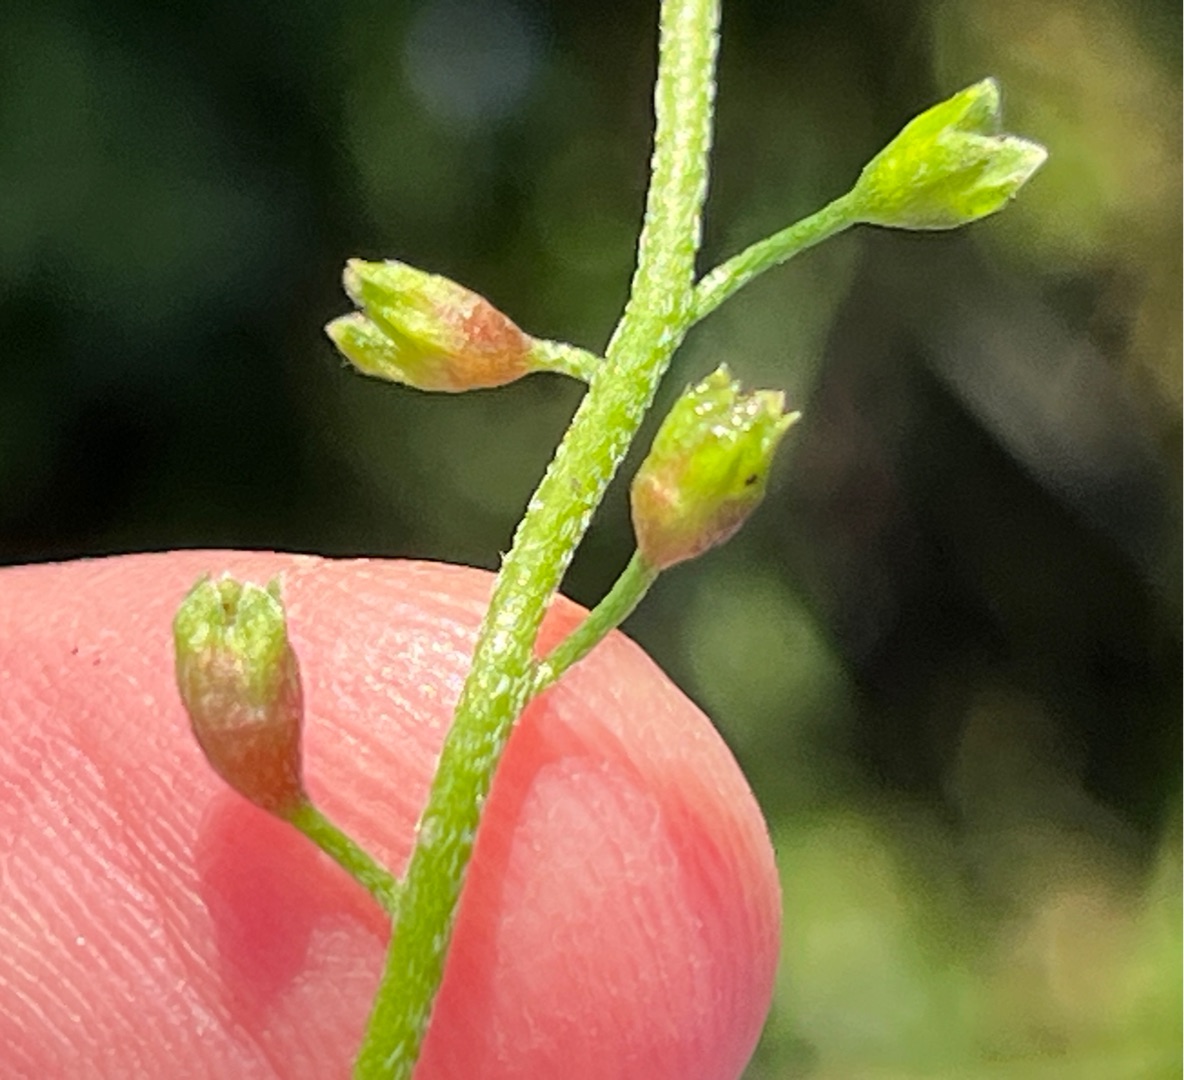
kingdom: Animalia
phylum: Arthropoda
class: Insecta
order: Diptera
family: Cecidomyiidae
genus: Dasineura
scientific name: Dasineura myosotidis
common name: Forglemmigejgalmyg
